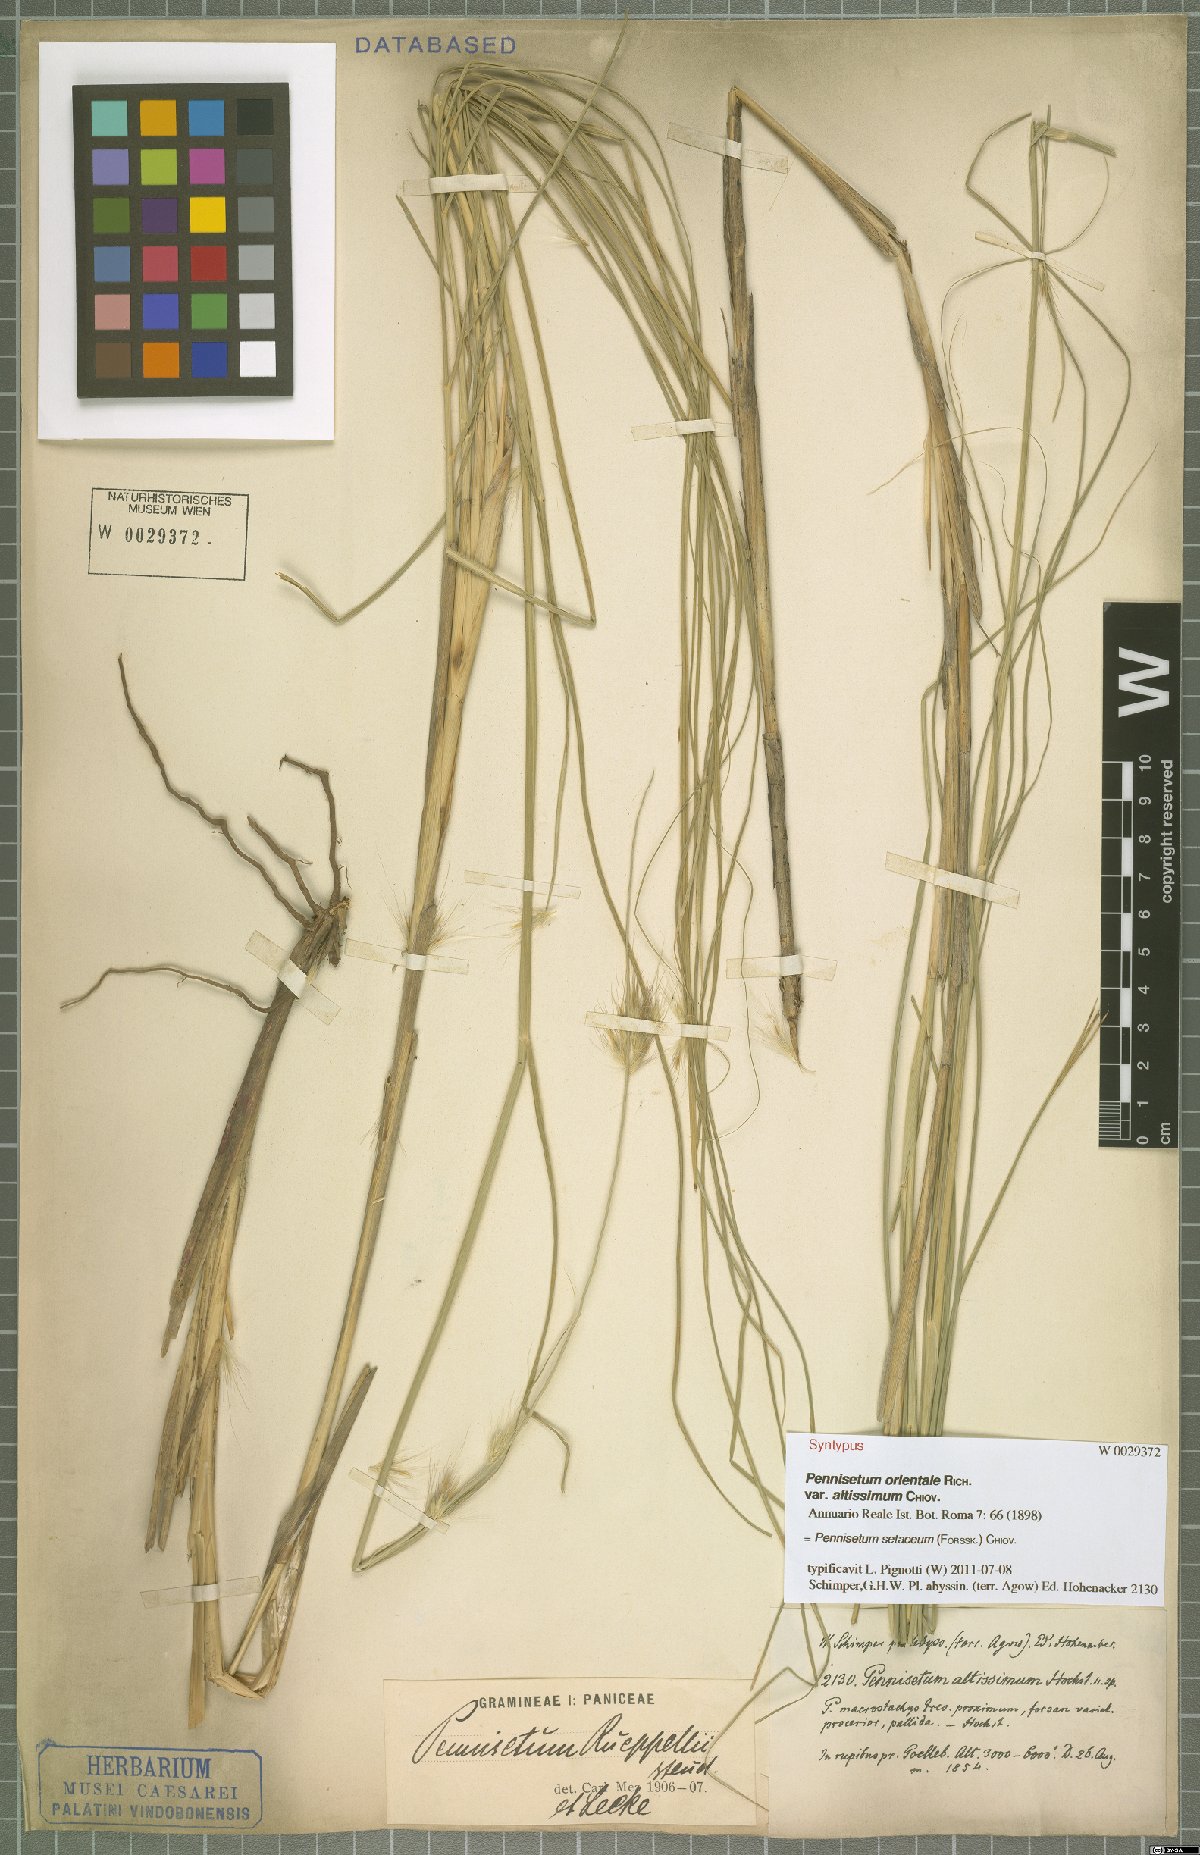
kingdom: Plantae
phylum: Tracheophyta
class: Liliopsida
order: Poales
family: Poaceae
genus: Cenchrus
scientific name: Cenchrus setaceus
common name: Crimson fountaingrass
